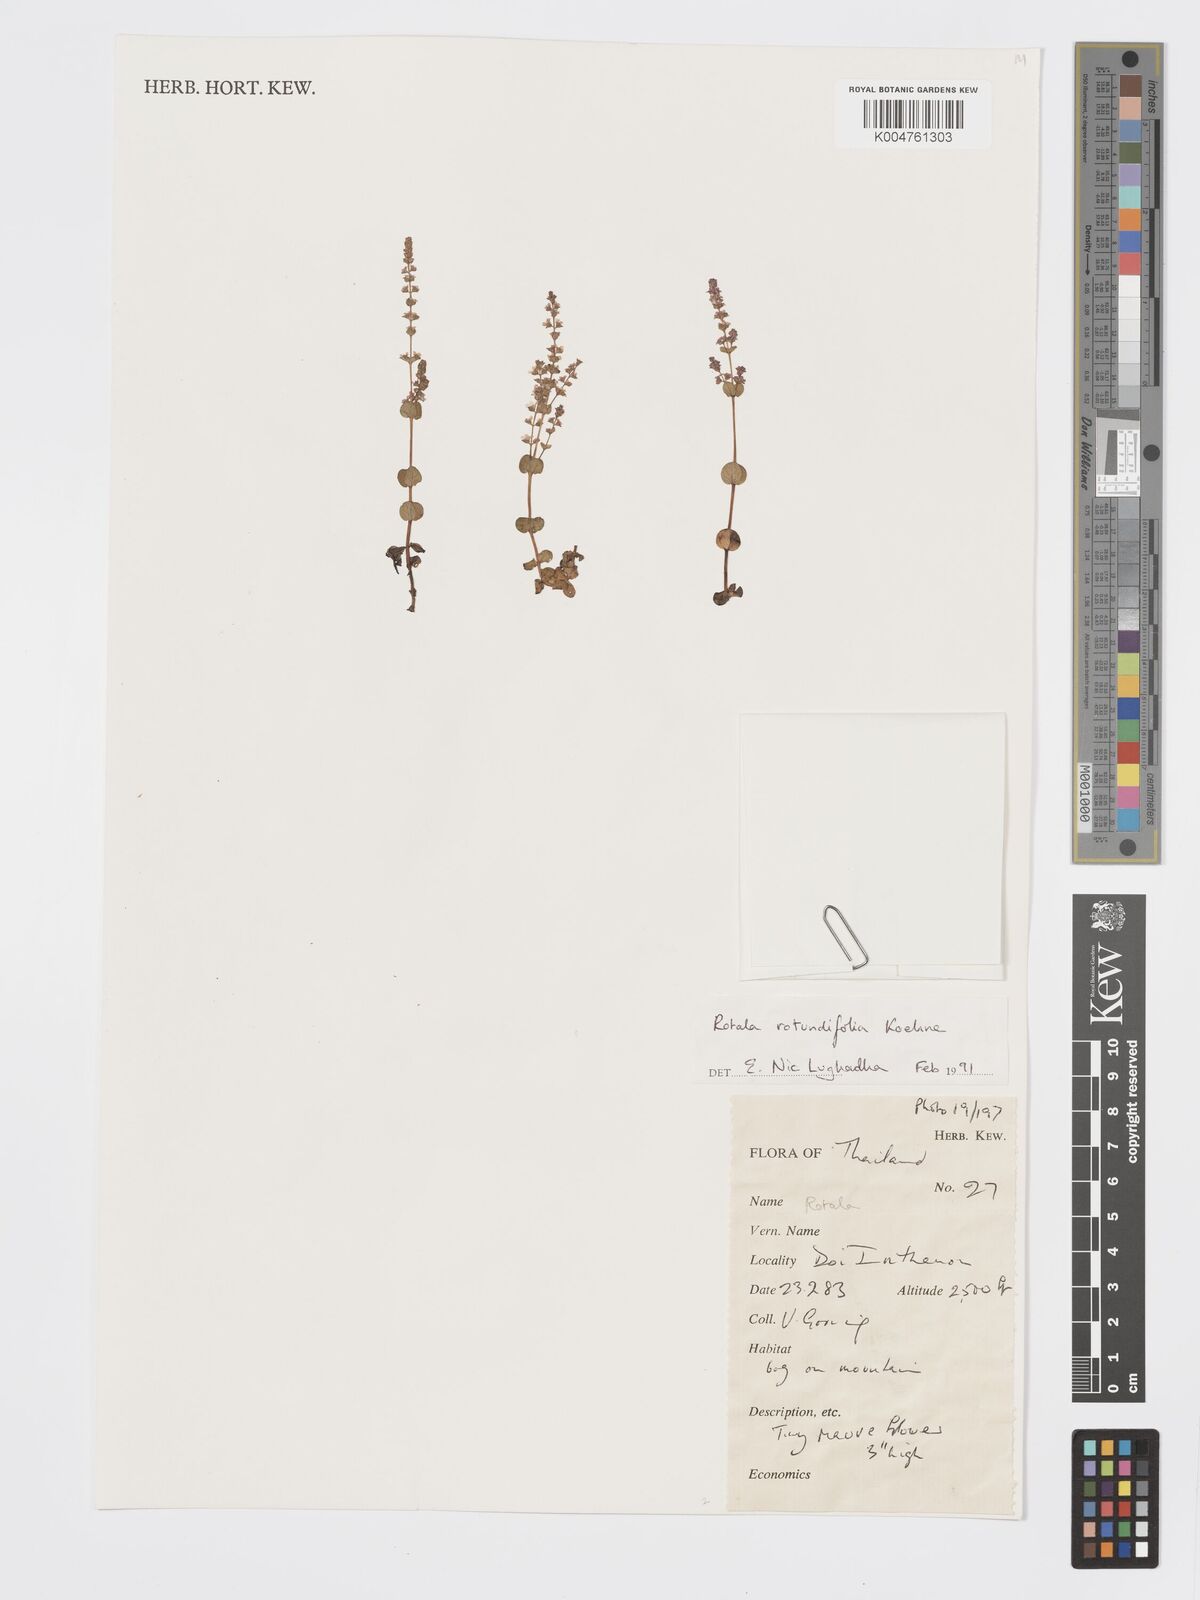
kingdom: Plantae
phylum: Tracheophyta
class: Magnoliopsida
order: Myrtales
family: Lythraceae
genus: Rotala
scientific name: Rotala rotundifolia
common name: Roundleaf toothcup
